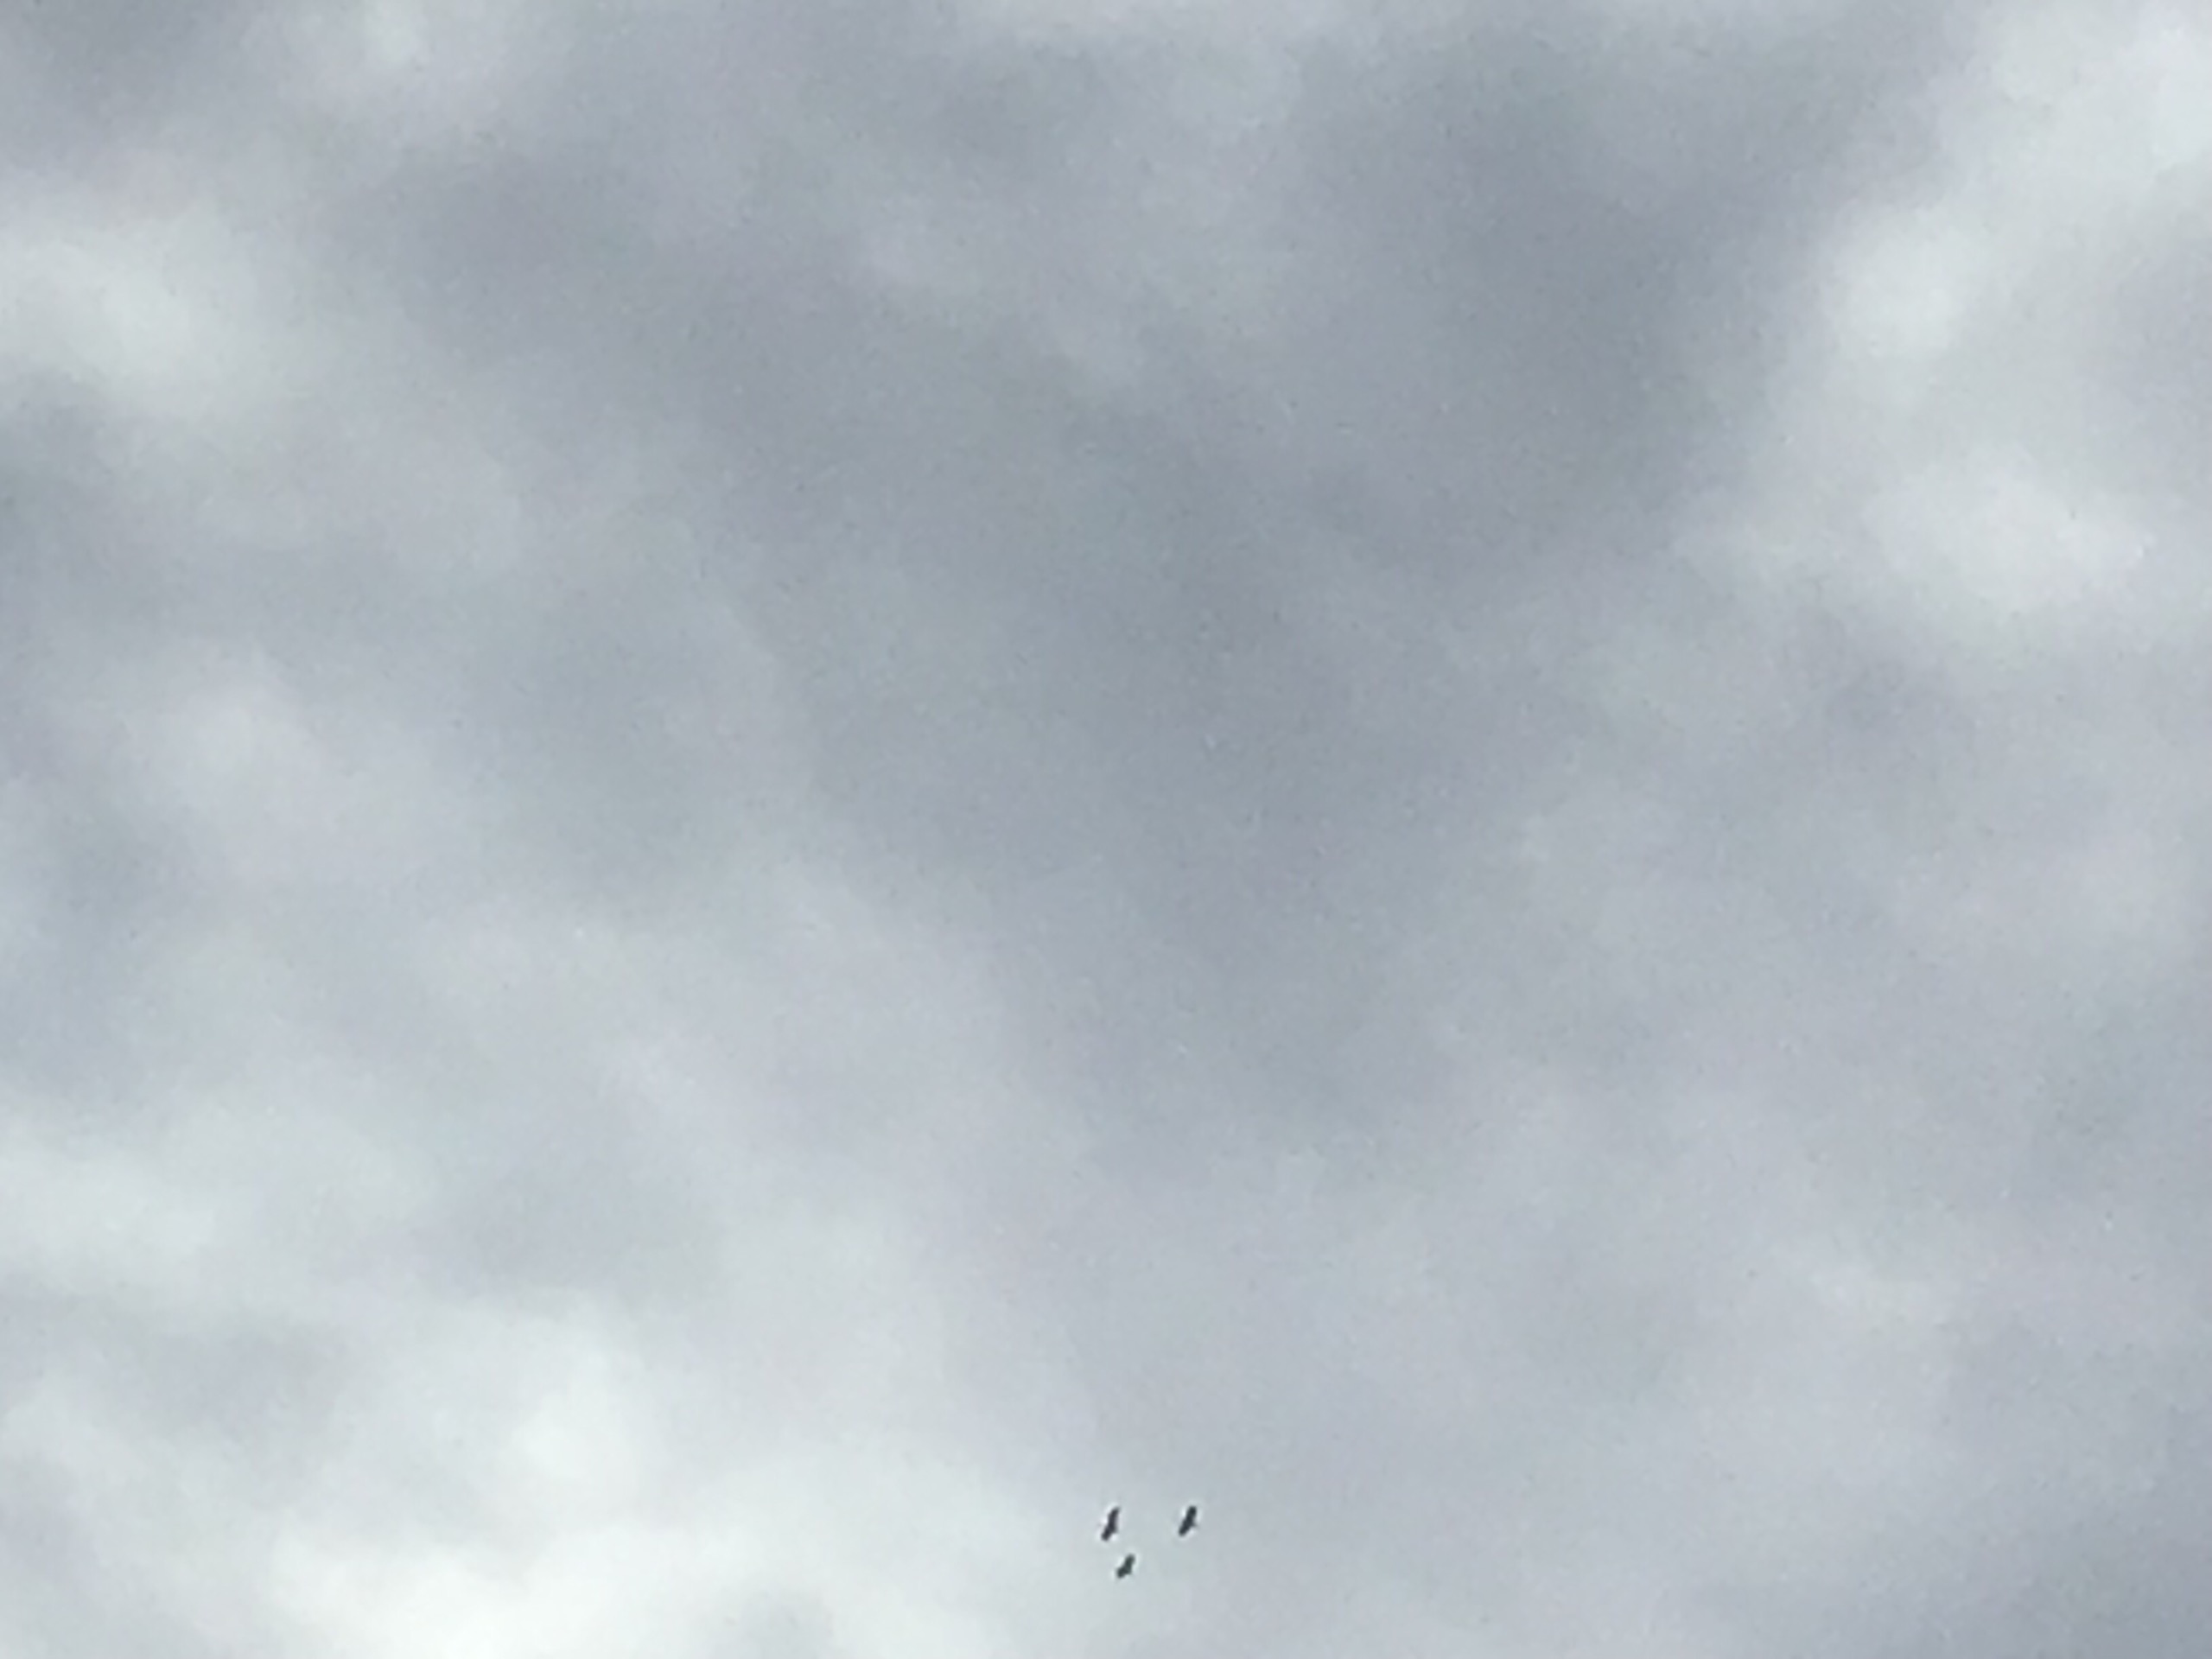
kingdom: Animalia
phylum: Chordata
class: Aves
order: Gruiformes
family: Gruidae
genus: Grus
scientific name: Grus grus
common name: Trane
